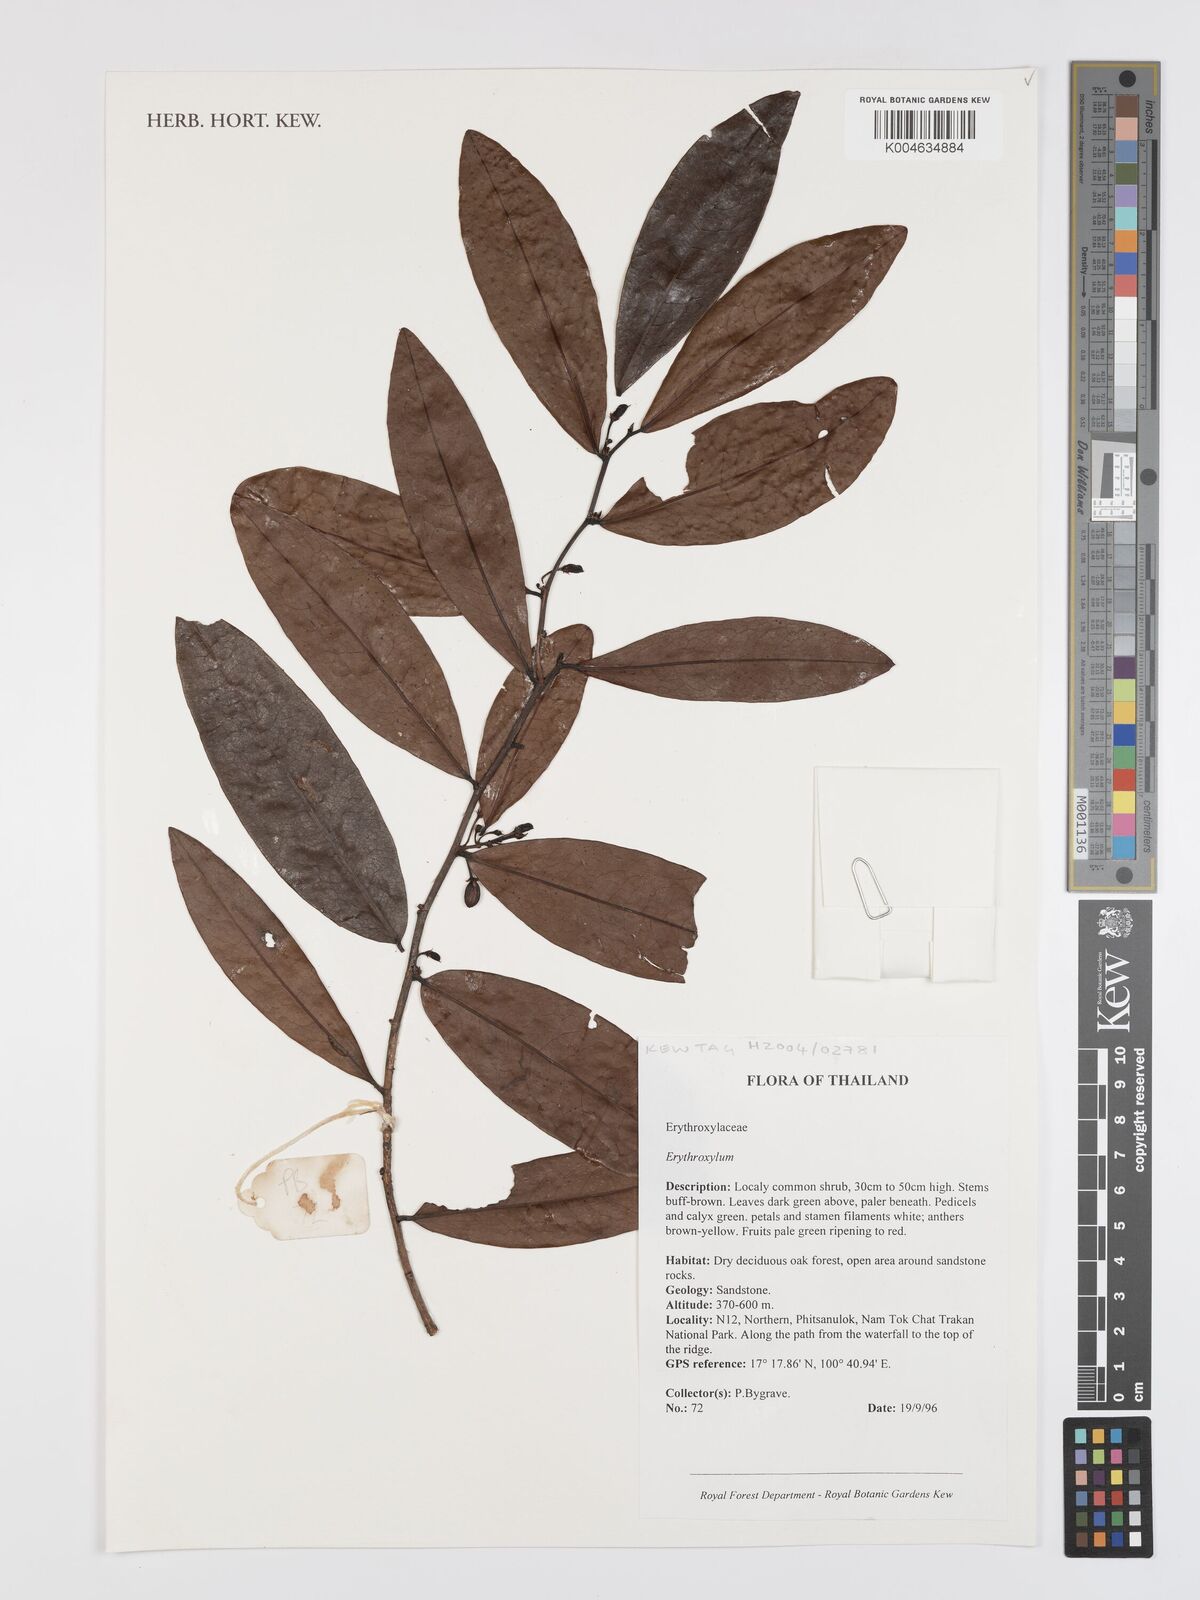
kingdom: Plantae
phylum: Tracheophyta
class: Magnoliopsida
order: Malpighiales
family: Erythroxylaceae
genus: Erythroxylum
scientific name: Erythroxylum
